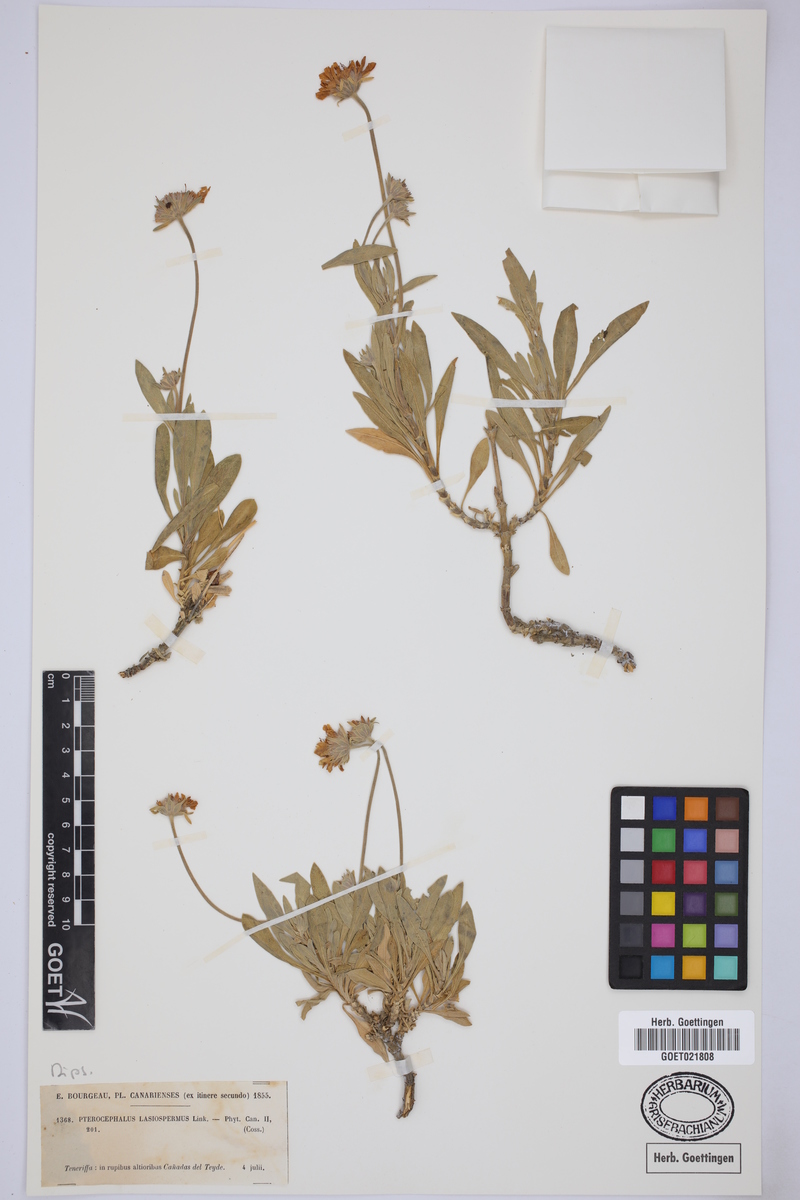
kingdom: Plantae
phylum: Tracheophyta
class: Magnoliopsida
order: Dipsacales
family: Caprifoliaceae
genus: Pterocephalus
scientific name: Pterocephalus lasiospermus
